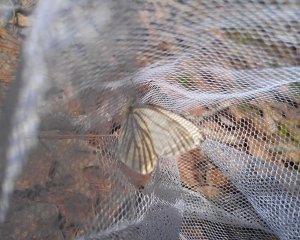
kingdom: Animalia
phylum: Arthropoda
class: Insecta
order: Lepidoptera
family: Pieridae
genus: Pieris
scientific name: Pieris oleracea
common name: Mustard White
